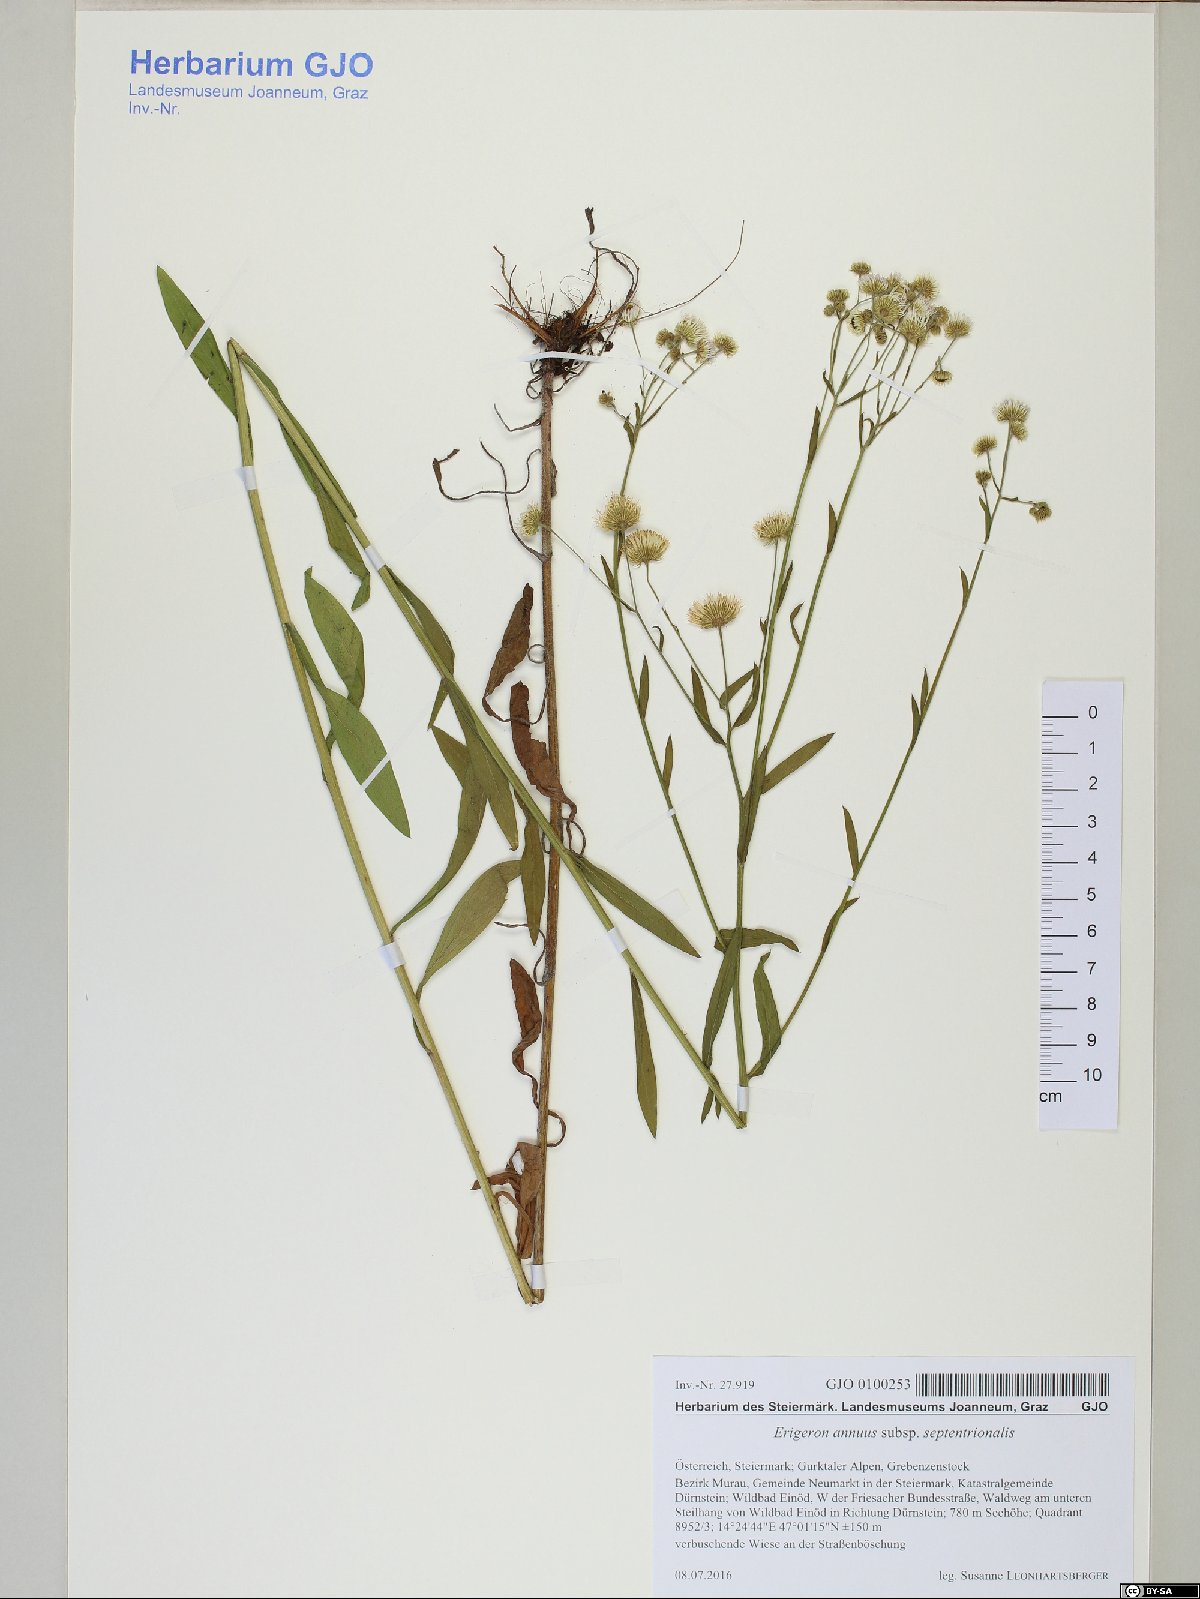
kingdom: Plantae
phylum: Tracheophyta
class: Magnoliopsida
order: Asterales
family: Asteraceae
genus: Erigeron
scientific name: Erigeron annuus
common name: Tall fleabane
